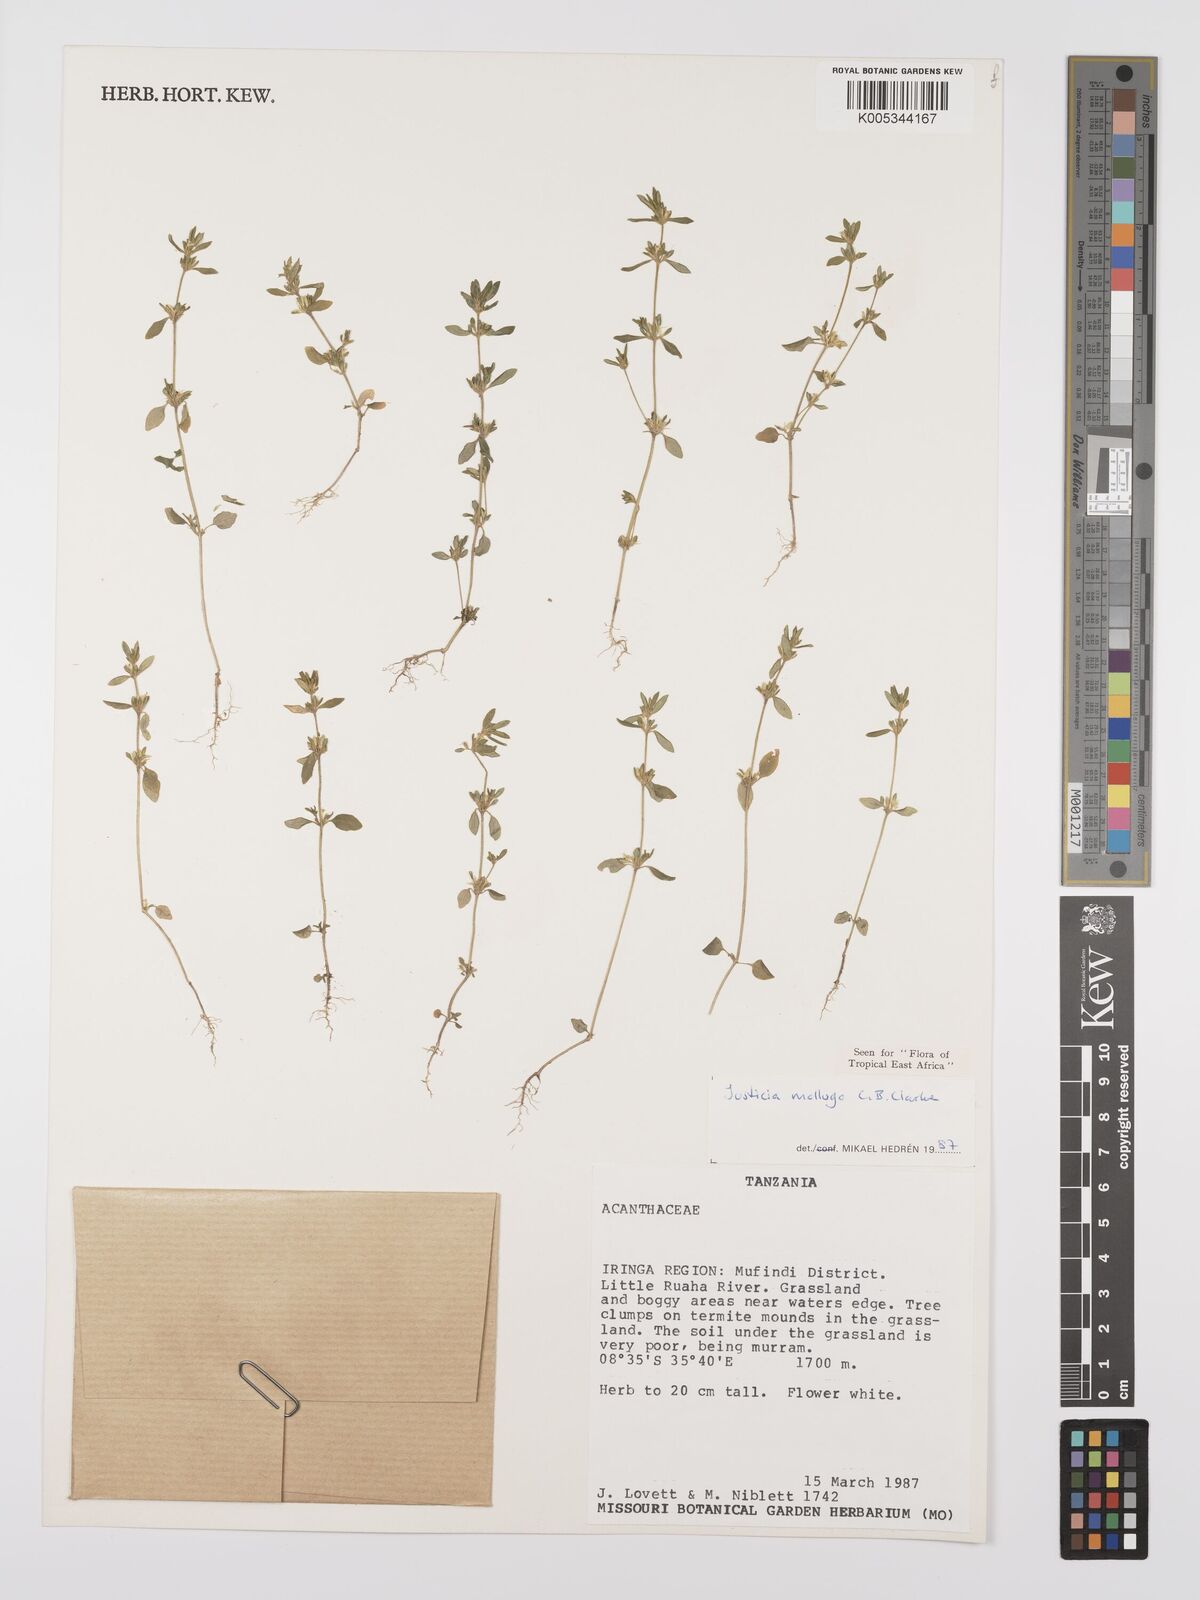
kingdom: Plantae
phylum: Tracheophyta
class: Magnoliopsida
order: Lamiales
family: Acanthaceae
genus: Justicia
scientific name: Justicia mollugo
